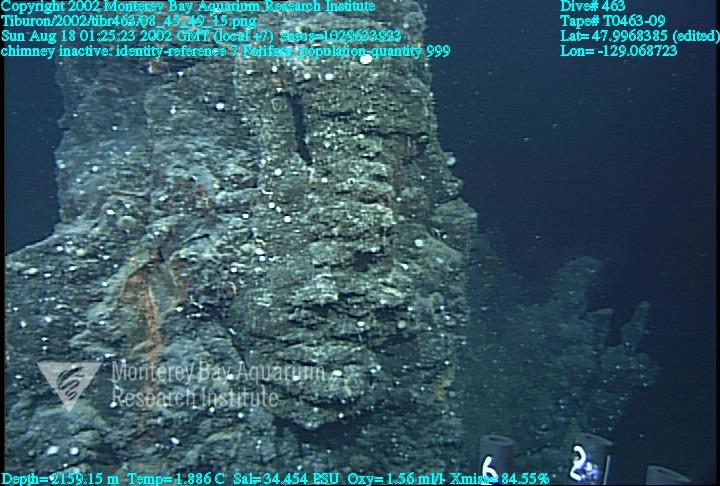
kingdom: Animalia
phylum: Porifera
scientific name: Porifera
